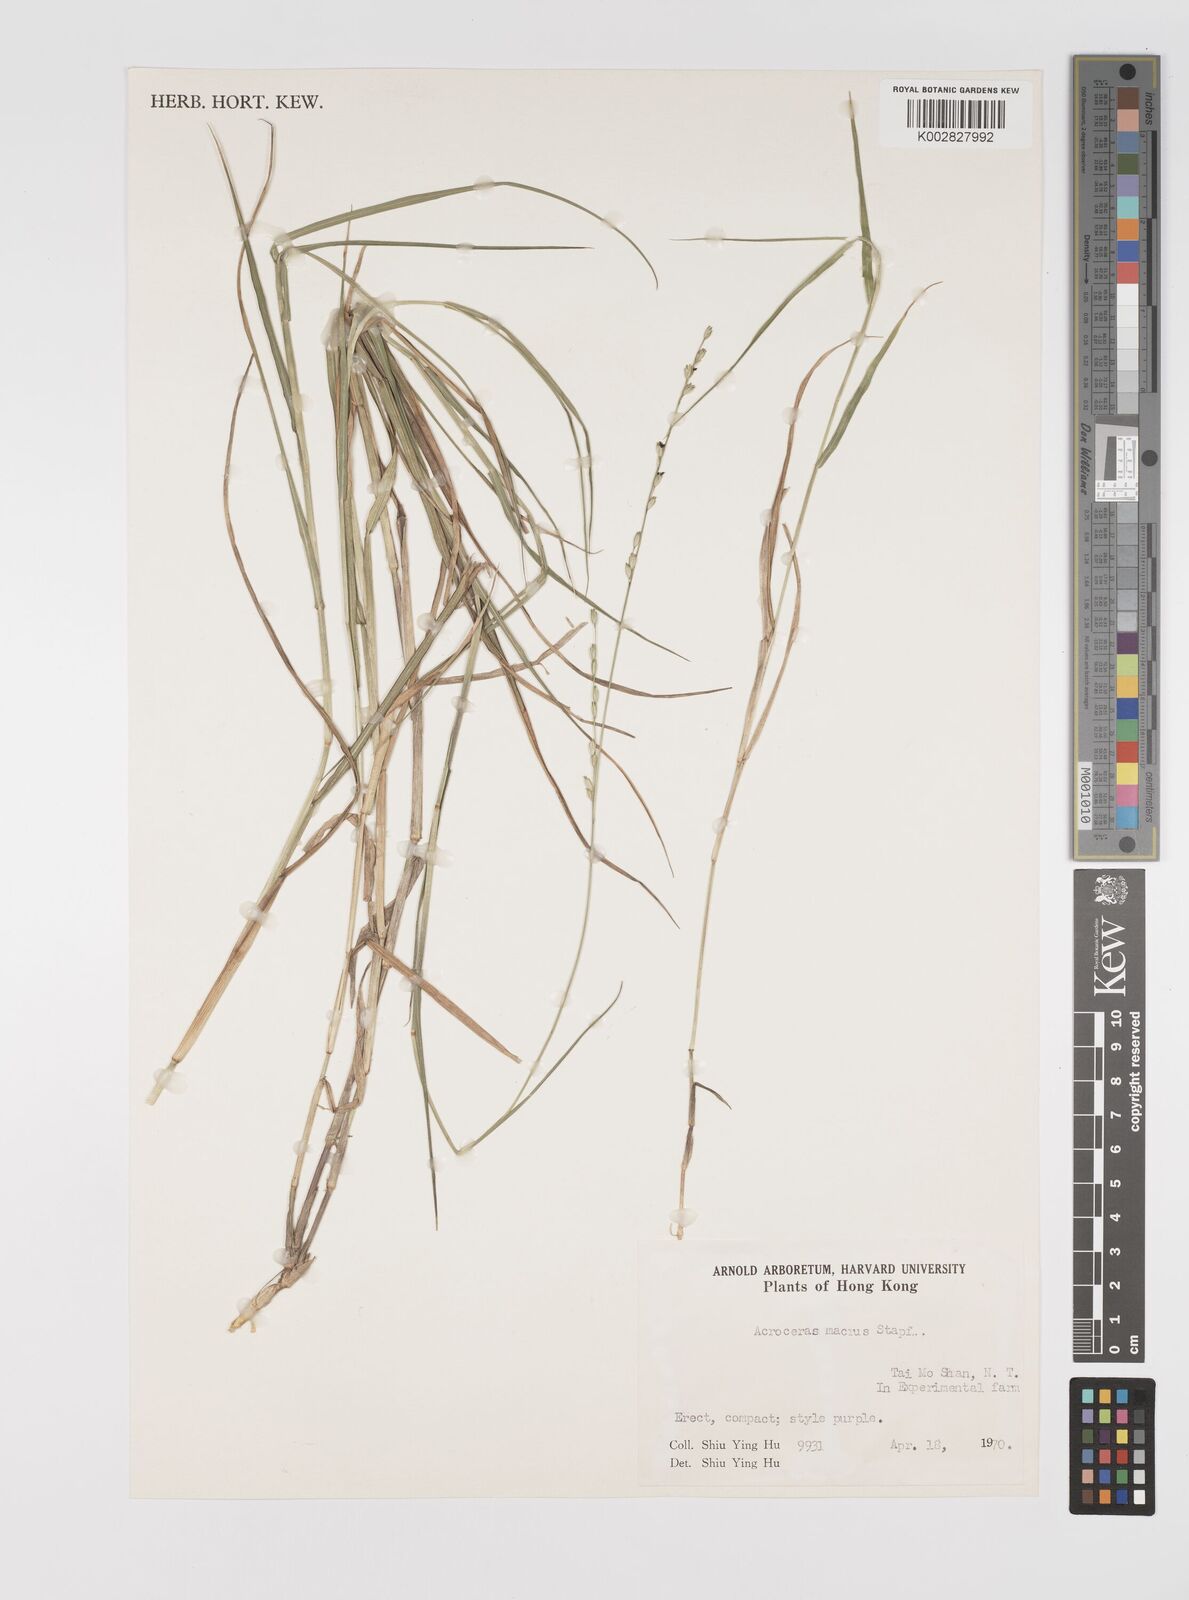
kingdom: Plantae
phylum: Tracheophyta
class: Liliopsida
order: Poales
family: Poaceae
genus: Acroceras
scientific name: Acroceras macrum
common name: Nyl grass
